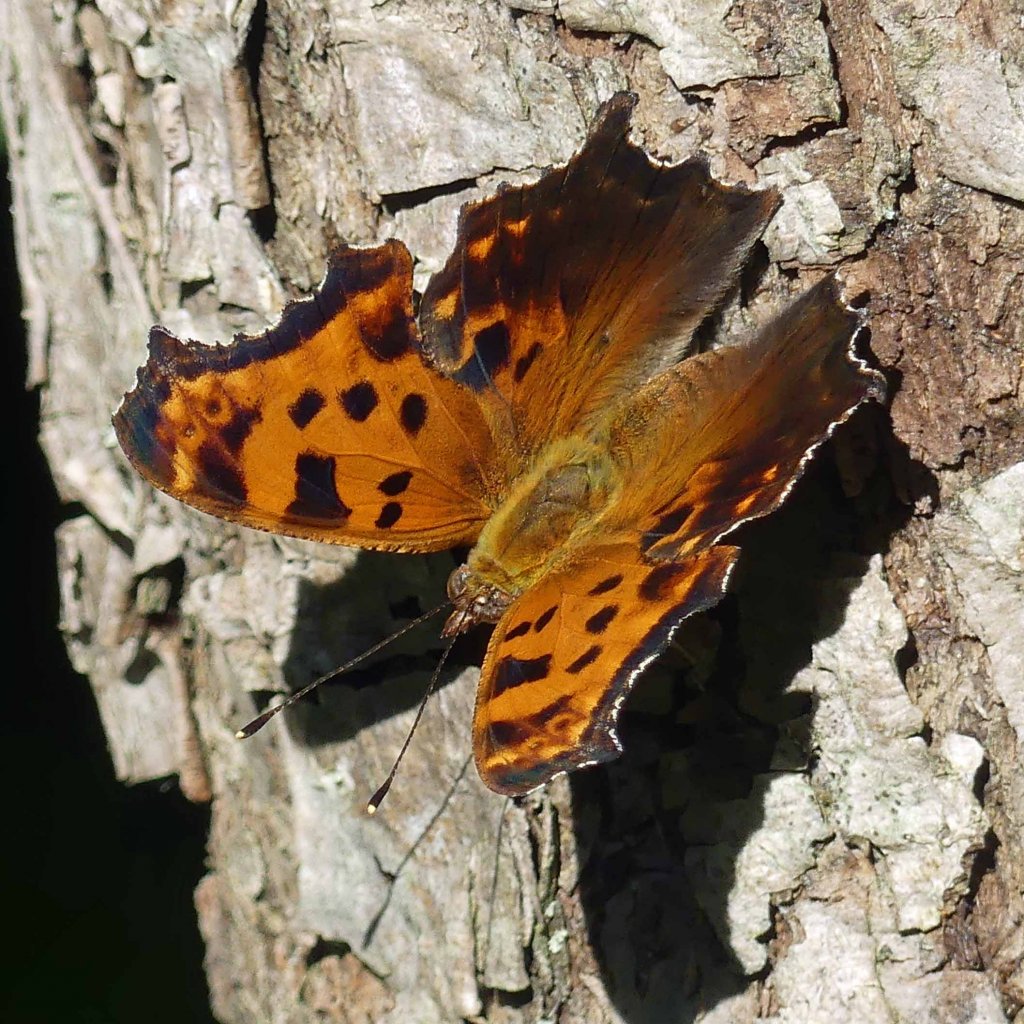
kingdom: Animalia
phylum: Arthropoda
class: Insecta
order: Lepidoptera
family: Nymphalidae
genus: Polygonia
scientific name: Polygonia comma
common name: Eastern Comma
